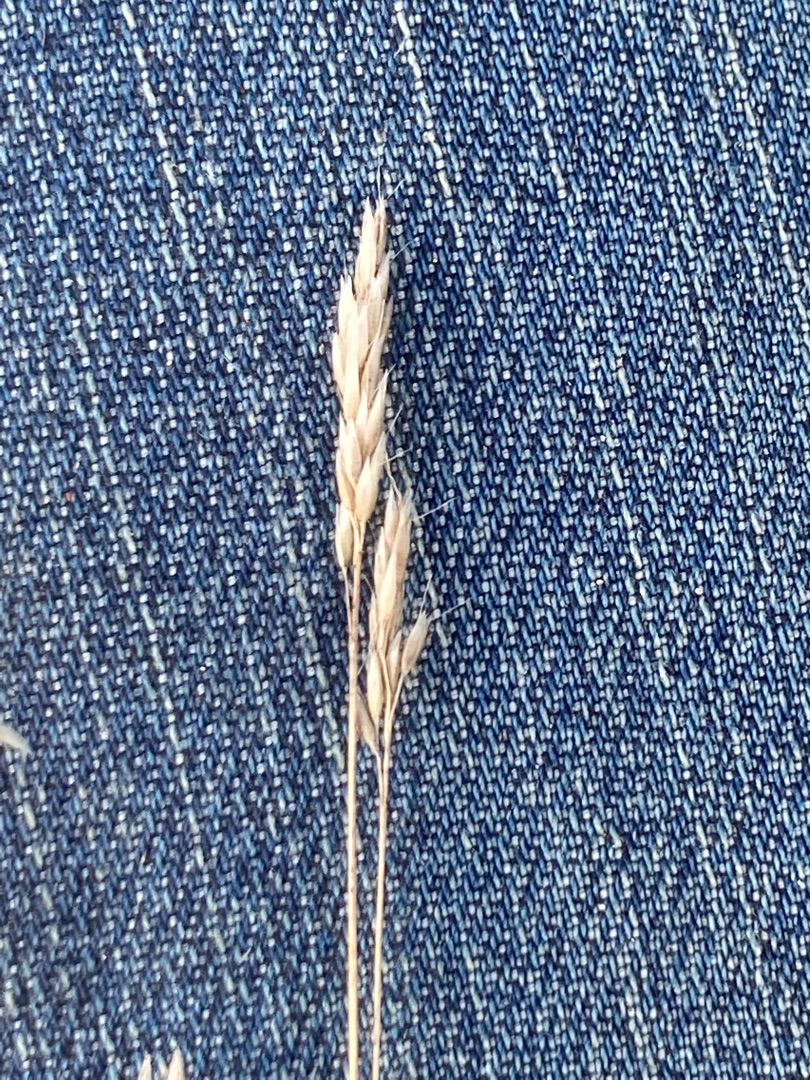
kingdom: Plantae
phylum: Tracheophyta
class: Liliopsida
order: Poales
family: Poaceae
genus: Aira
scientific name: Aira praecox
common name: Tidlig dværgbunke
